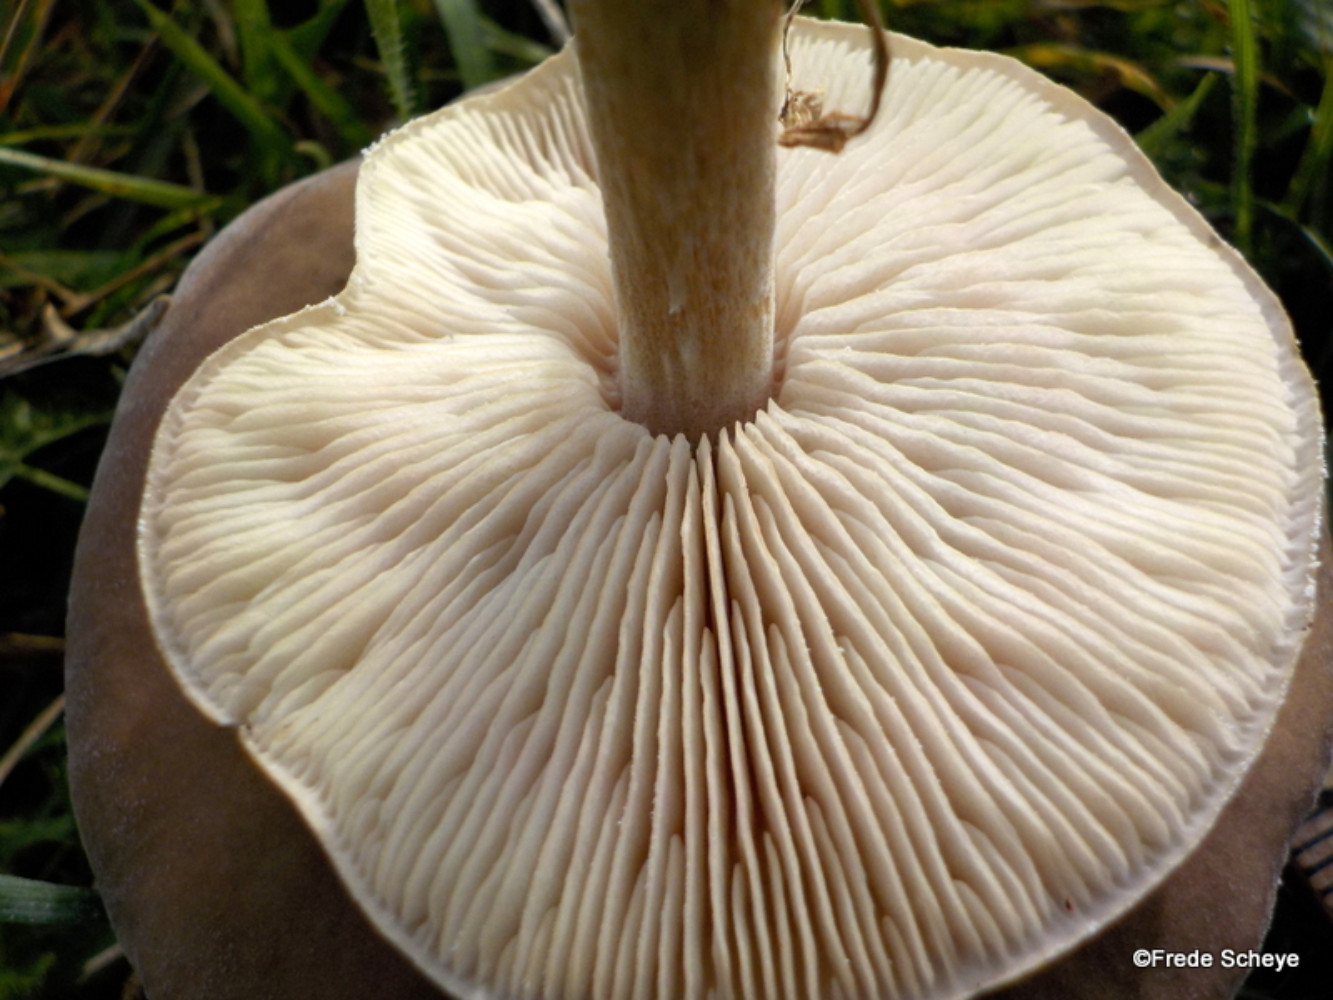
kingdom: Fungi
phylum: Basidiomycota
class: Agaricomycetes
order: Agaricales
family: Tricholomataceae
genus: Melanoleuca
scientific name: Melanoleuca polioleuca
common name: hvidbladet munkehat
